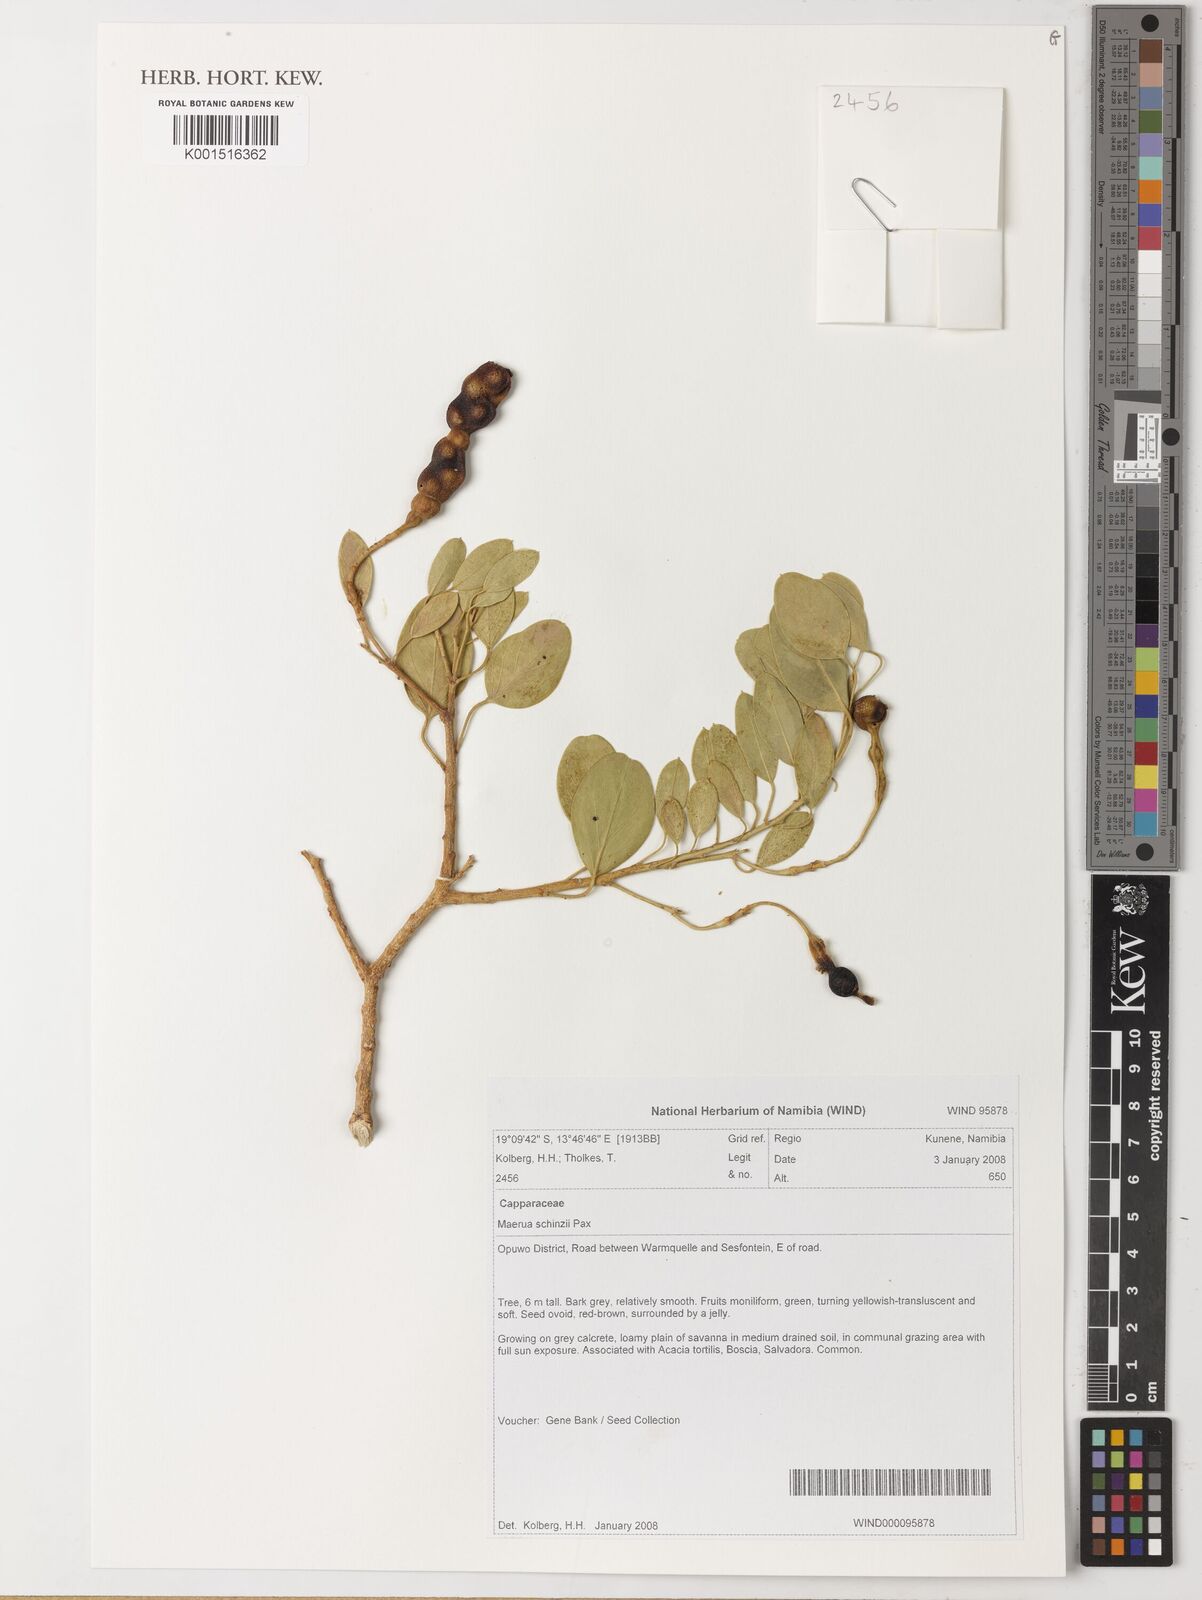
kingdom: Plantae
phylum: Tracheophyta
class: Magnoliopsida
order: Brassicales
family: Capparaceae
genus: Maerua
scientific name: Maerua schinzii
